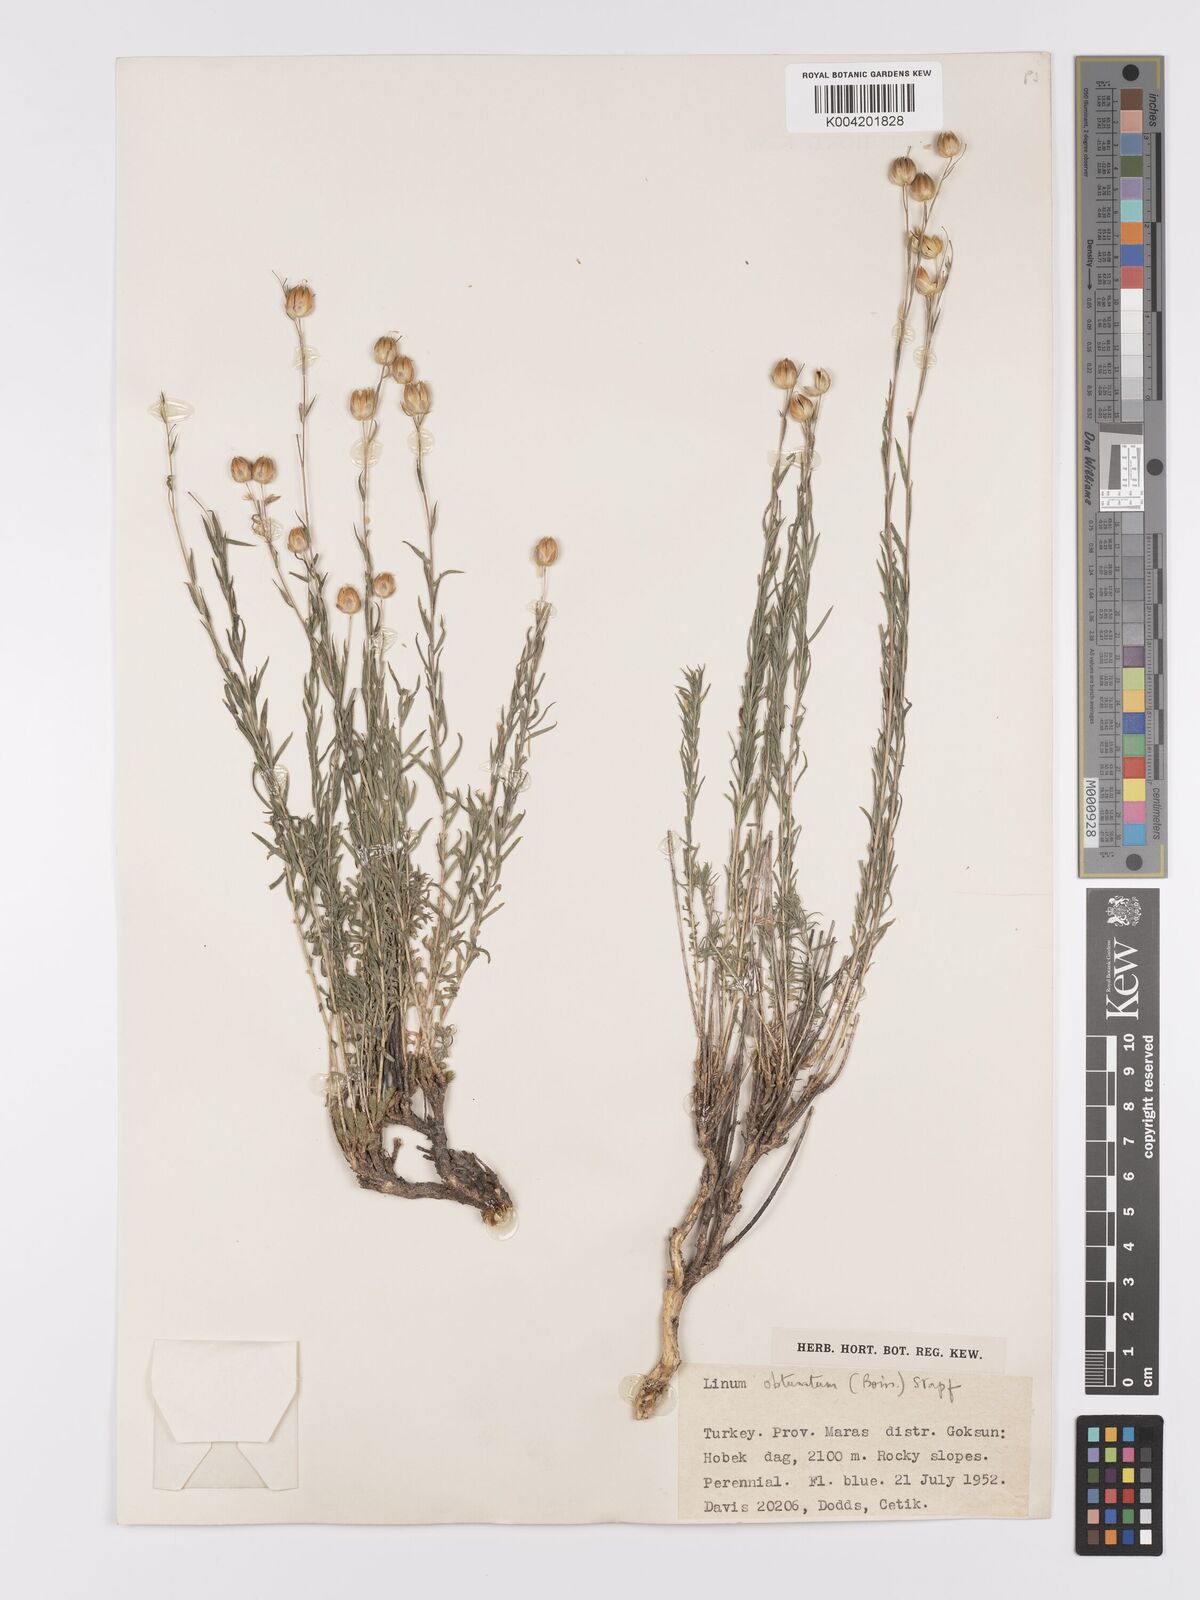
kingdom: Plantae
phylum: Tracheophyta
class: Magnoliopsida
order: Malpighiales
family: Linaceae
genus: Linum
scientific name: Linum obtusatum
